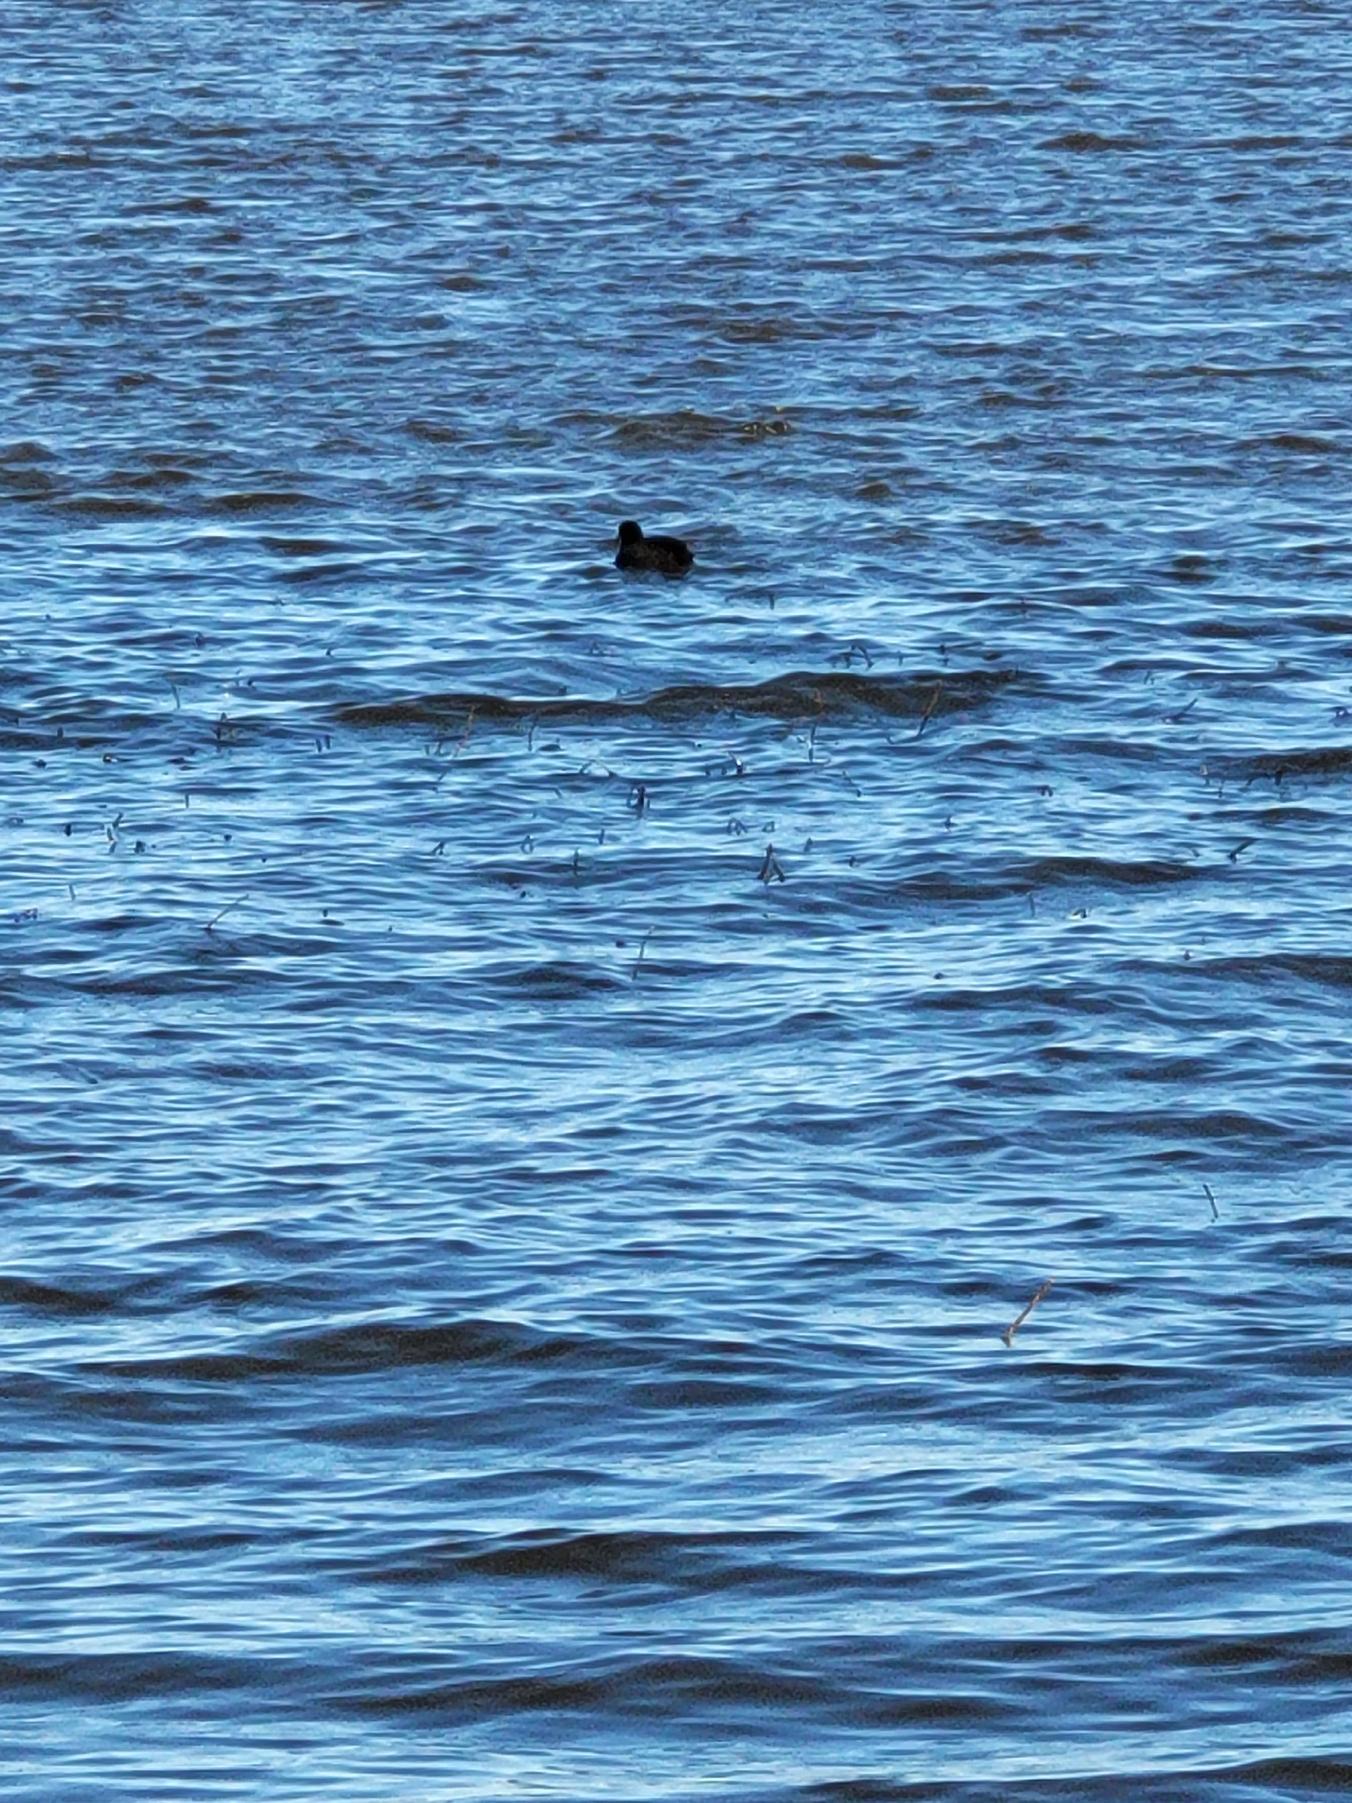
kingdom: Animalia
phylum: Chordata
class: Aves
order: Gruiformes
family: Rallidae
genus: Fulica
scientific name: Fulica atra
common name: Blishøne
